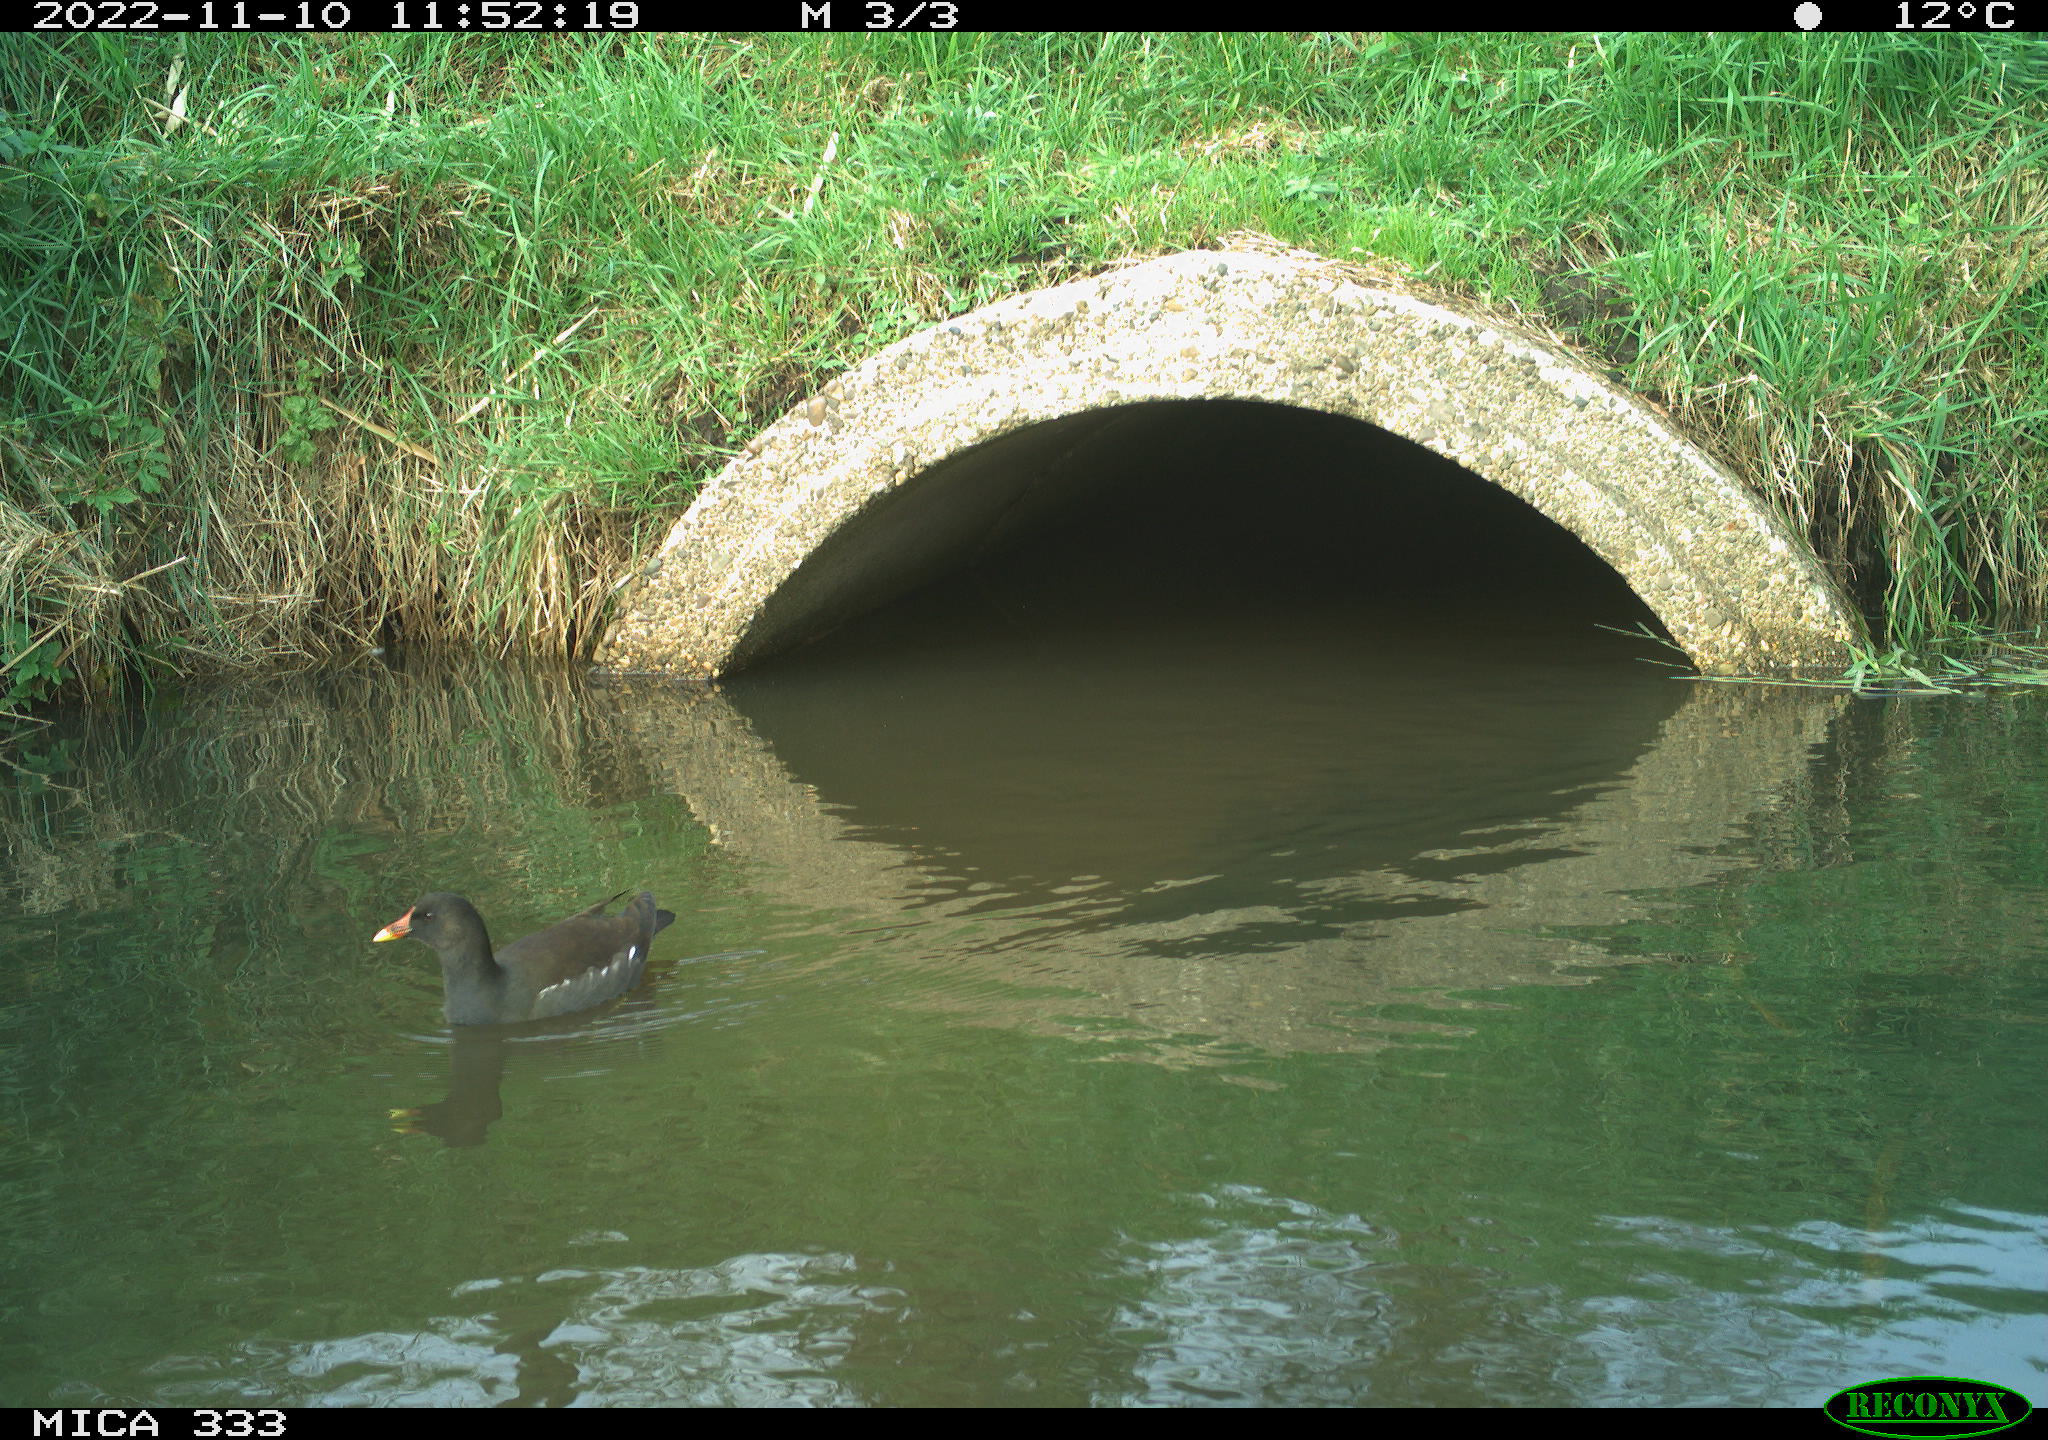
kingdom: Animalia
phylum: Chordata
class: Aves
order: Gruiformes
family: Rallidae
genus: Gallinula
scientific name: Gallinula chloropus
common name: Common moorhen
